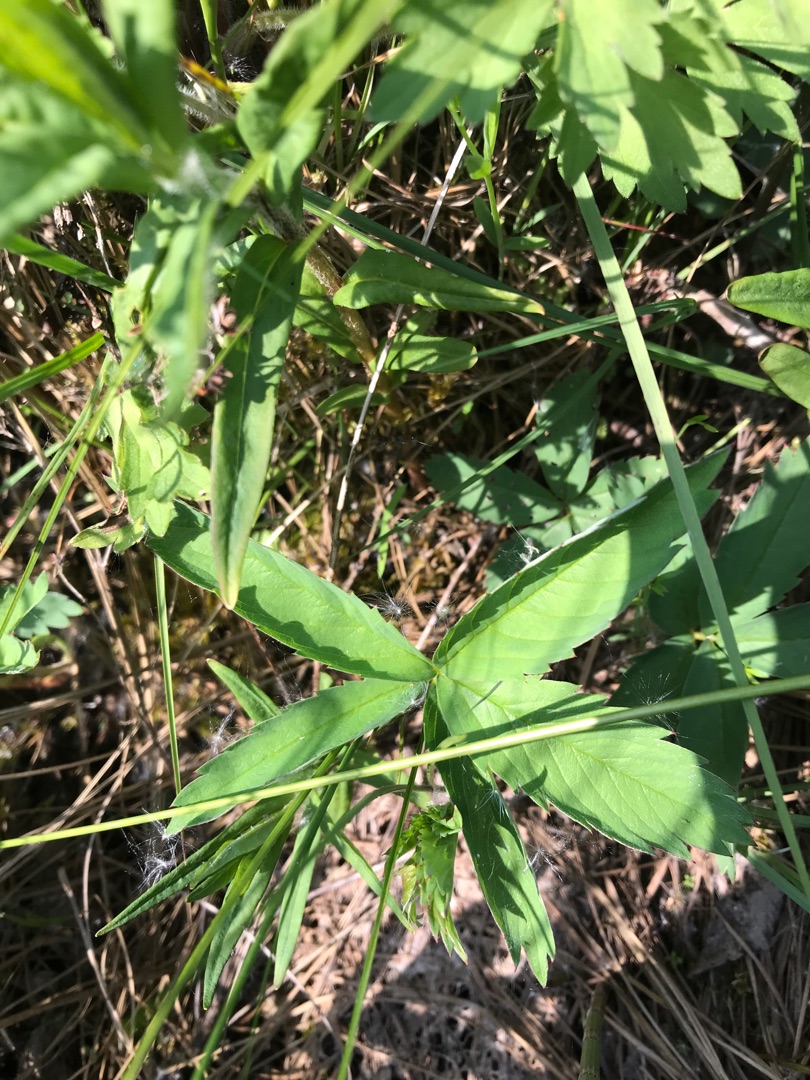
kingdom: Plantae
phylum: Tracheophyta
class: Magnoliopsida
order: Rosales
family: Rosaceae
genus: Comarum
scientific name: Comarum palustre
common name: Kragefod
